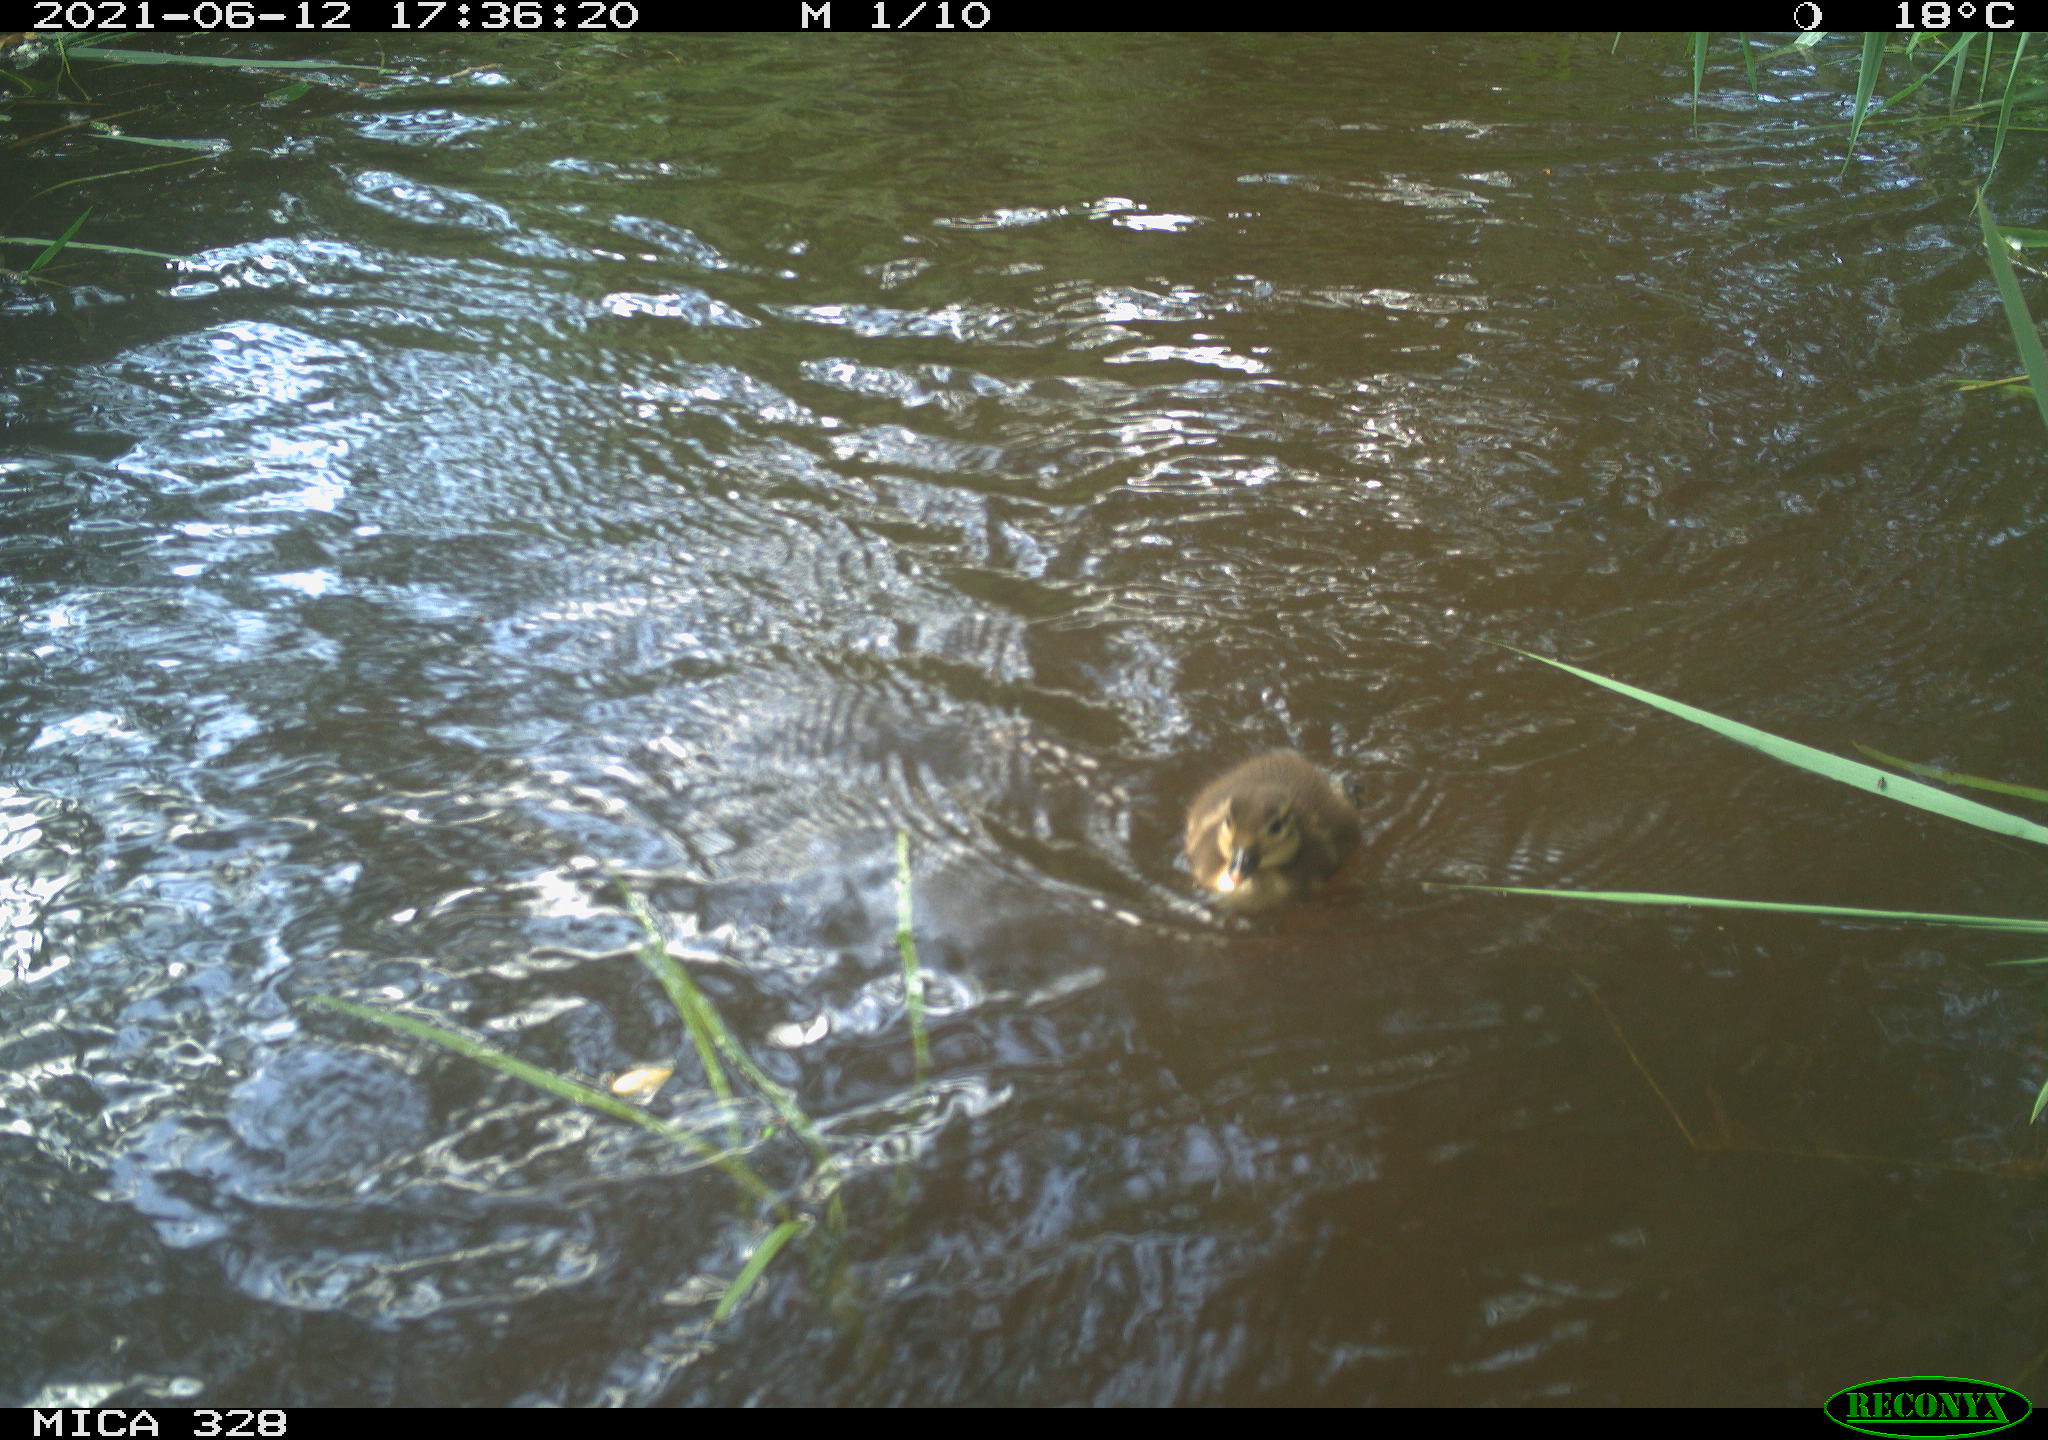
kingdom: Animalia
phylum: Chordata
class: Aves
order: Anseriformes
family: Anatidae
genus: Aix
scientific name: Aix galericulata
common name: Mandarin duck
